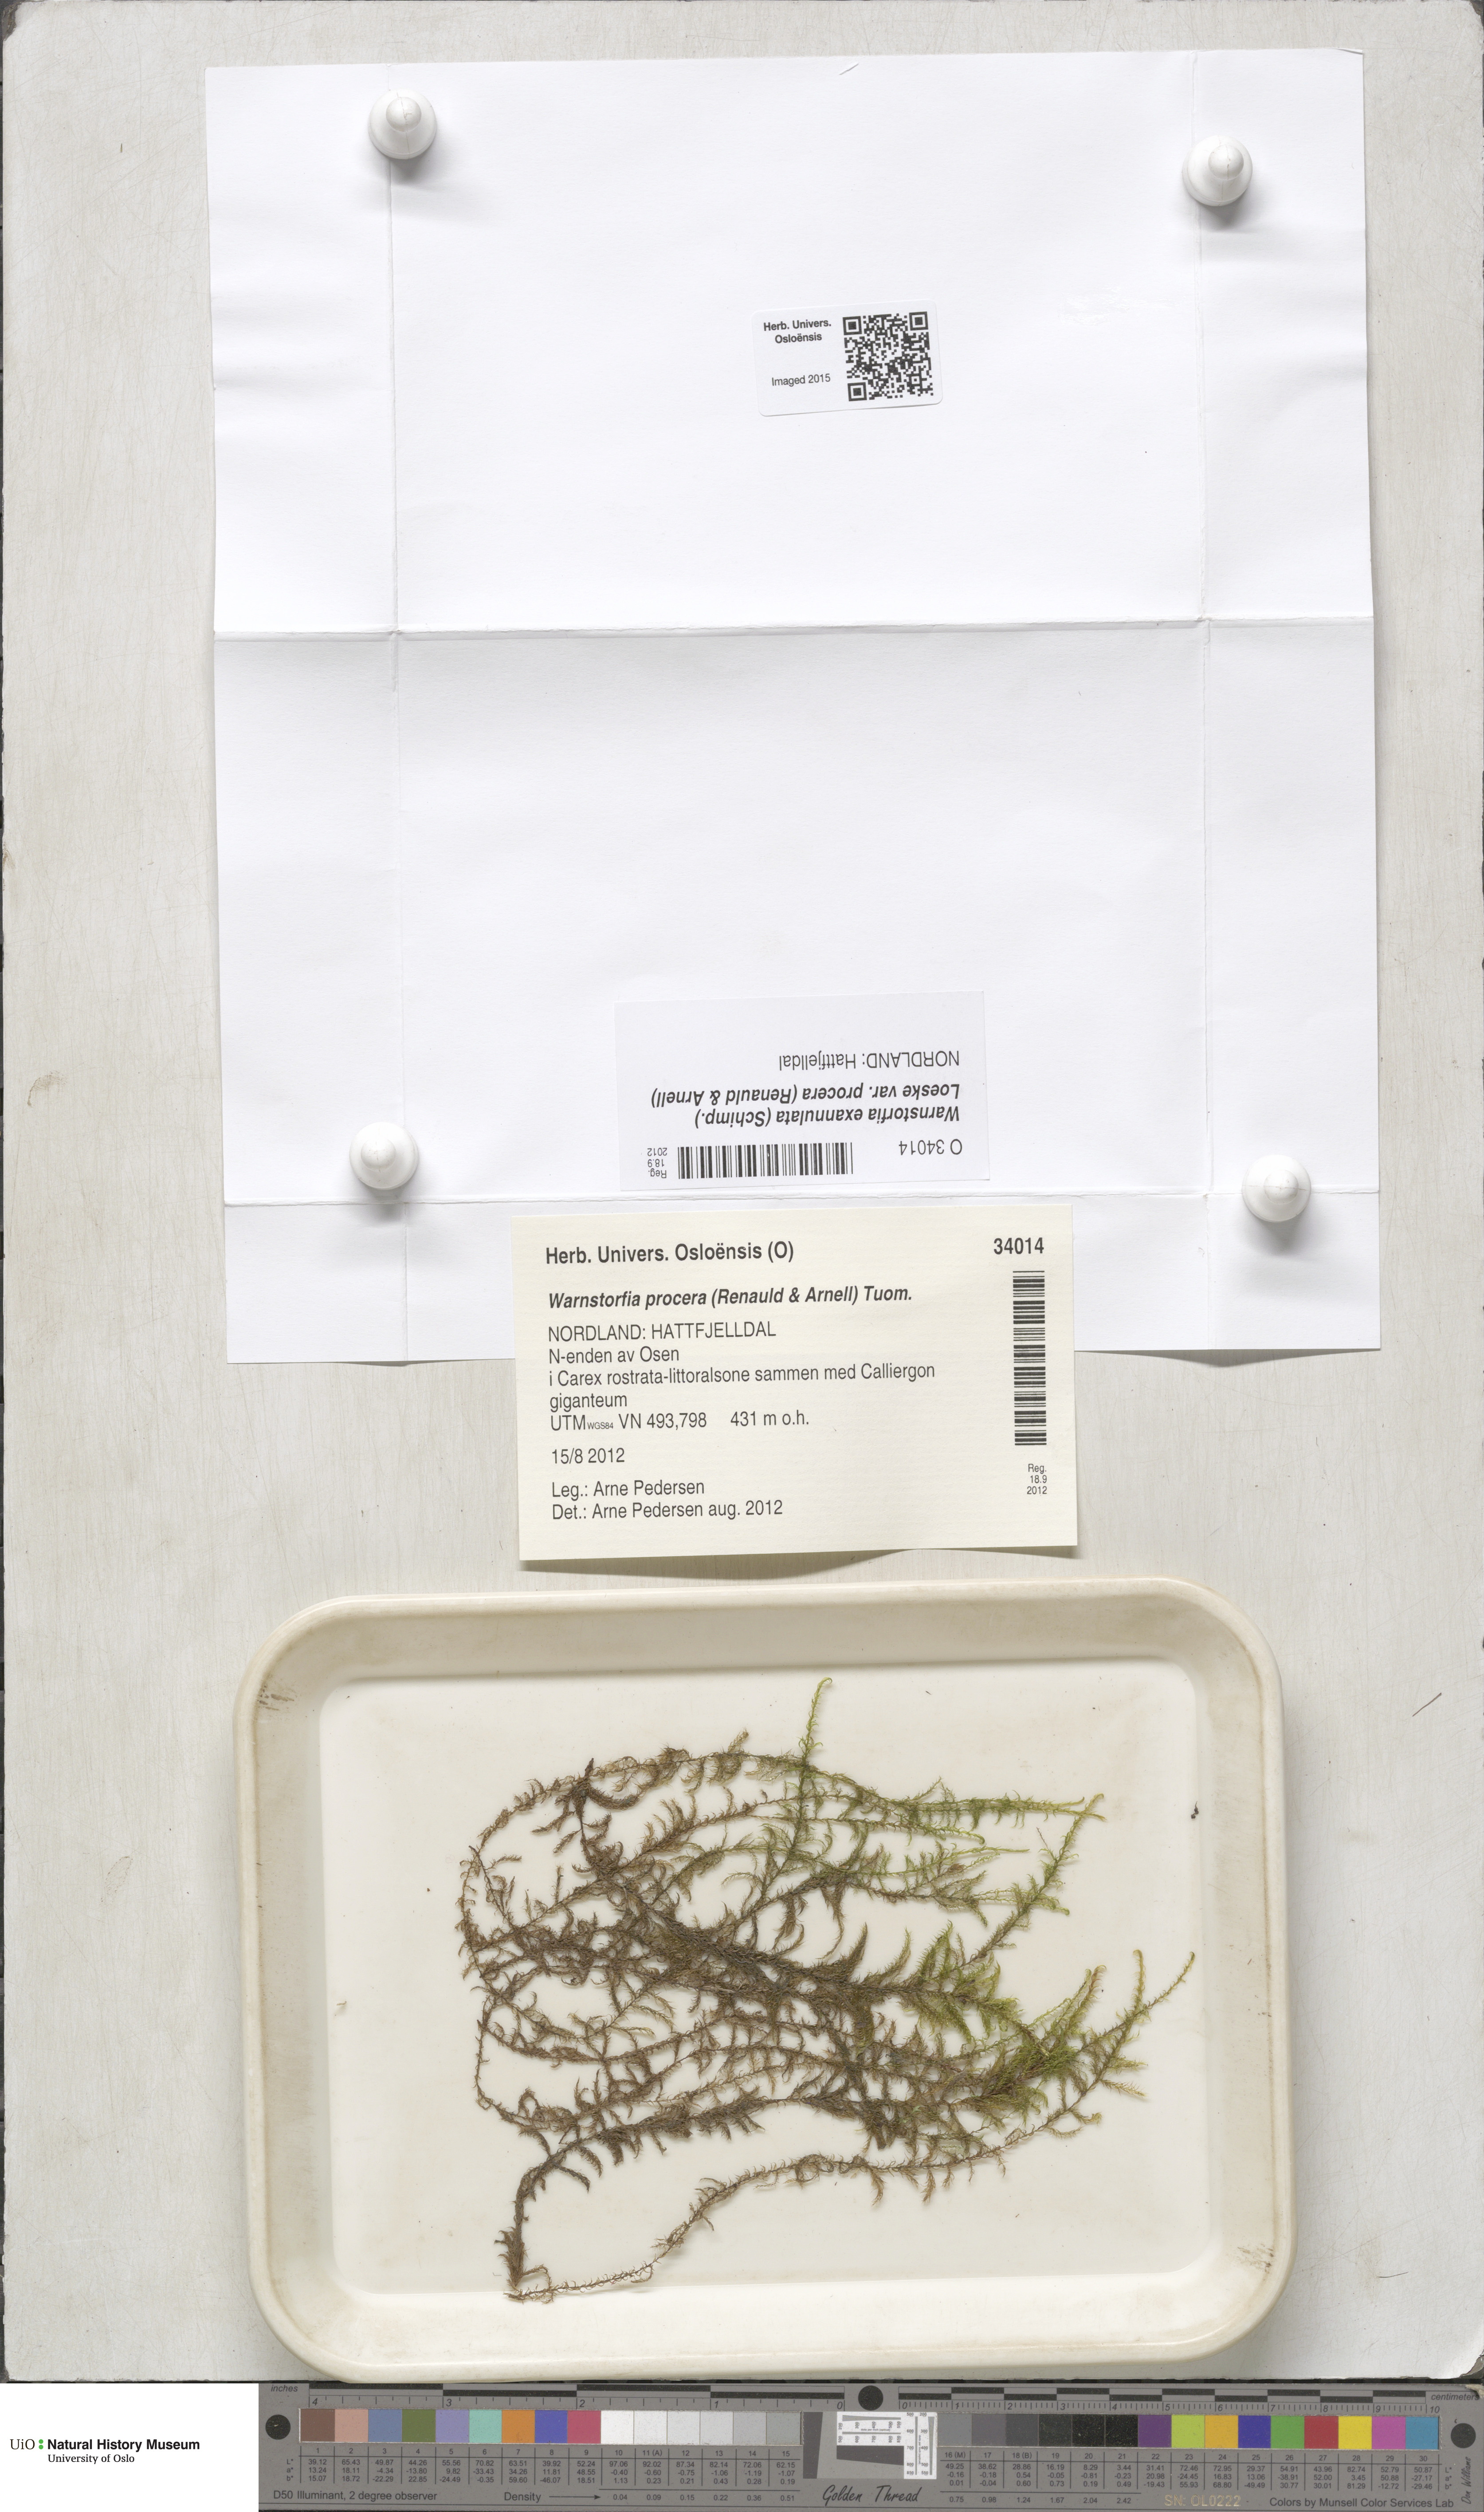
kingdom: Plantae
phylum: Bryophyta
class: Bryopsida
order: Hypnales
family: Calliergonaceae
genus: Sarmentypnum
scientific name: Sarmentypnum procerum
